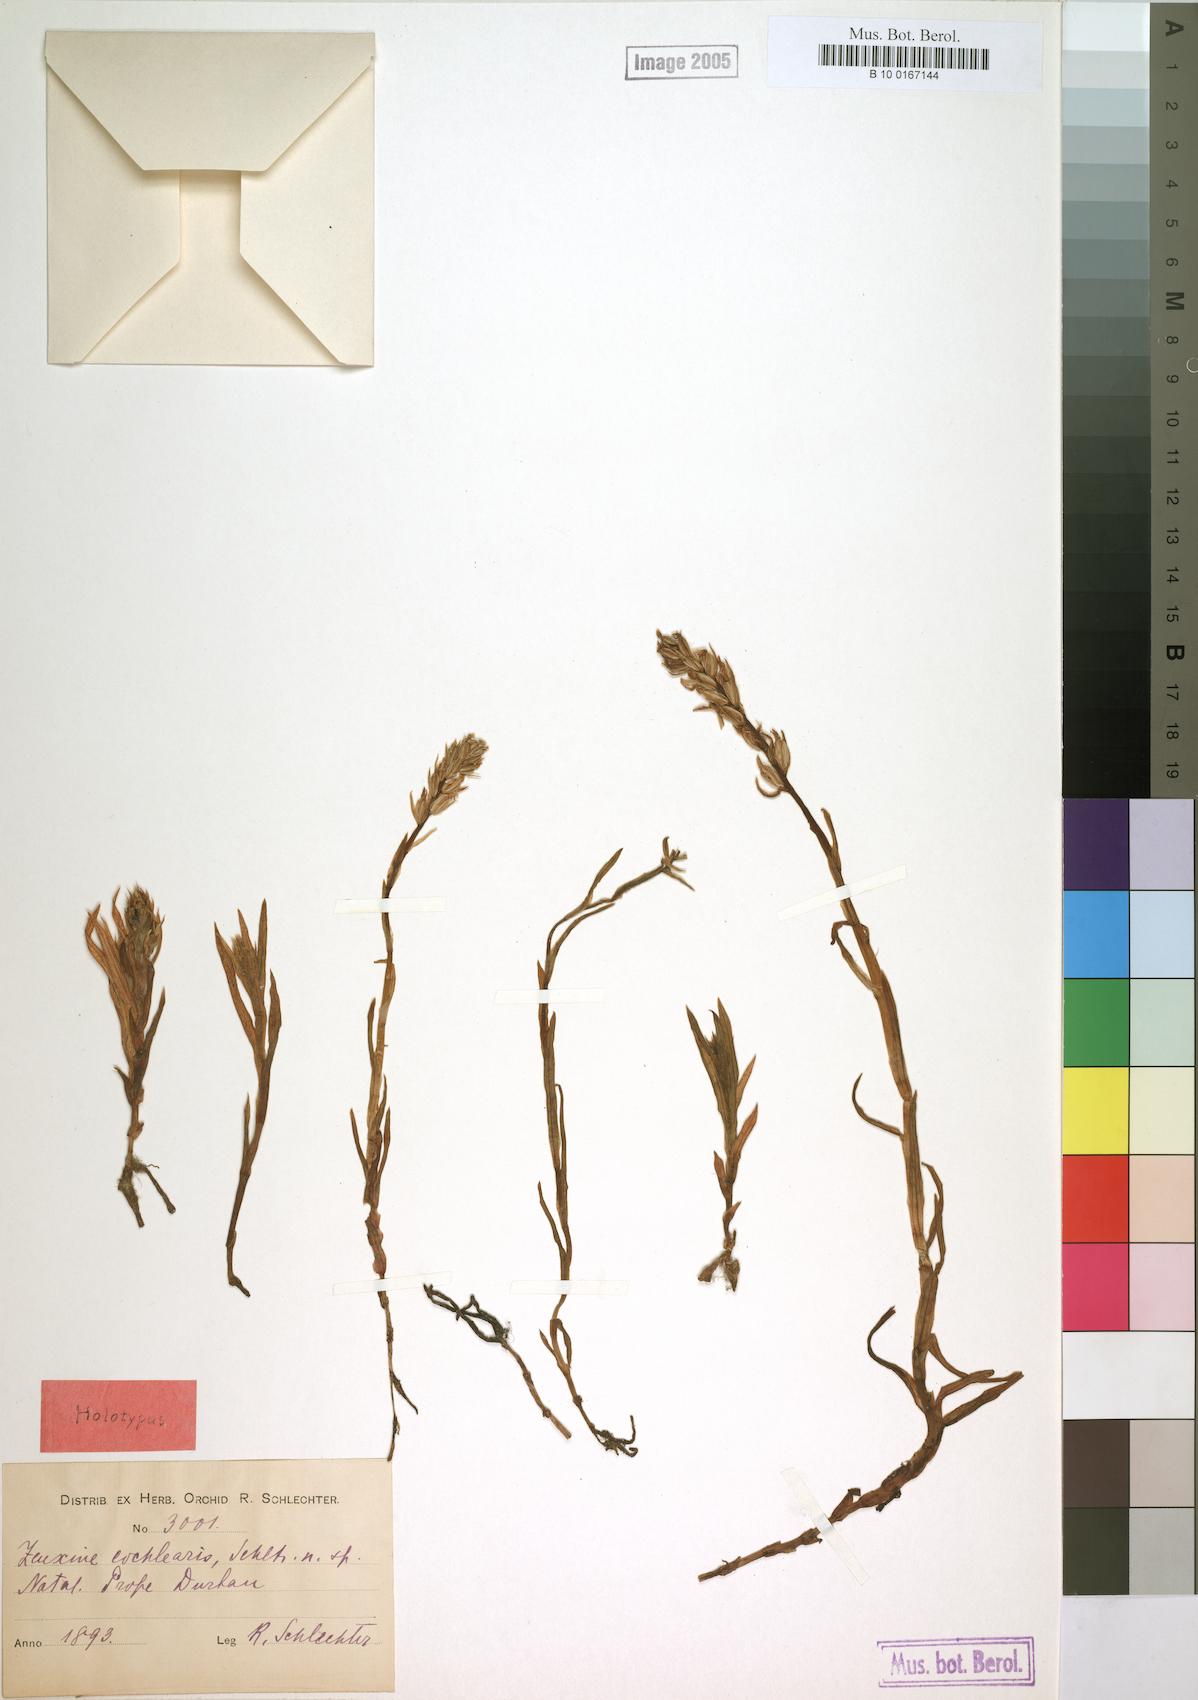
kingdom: Plantae
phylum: Tracheophyta
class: Liliopsida
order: Asparagales
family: Orchidaceae
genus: Zeuxine
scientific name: Zeuxine africana
